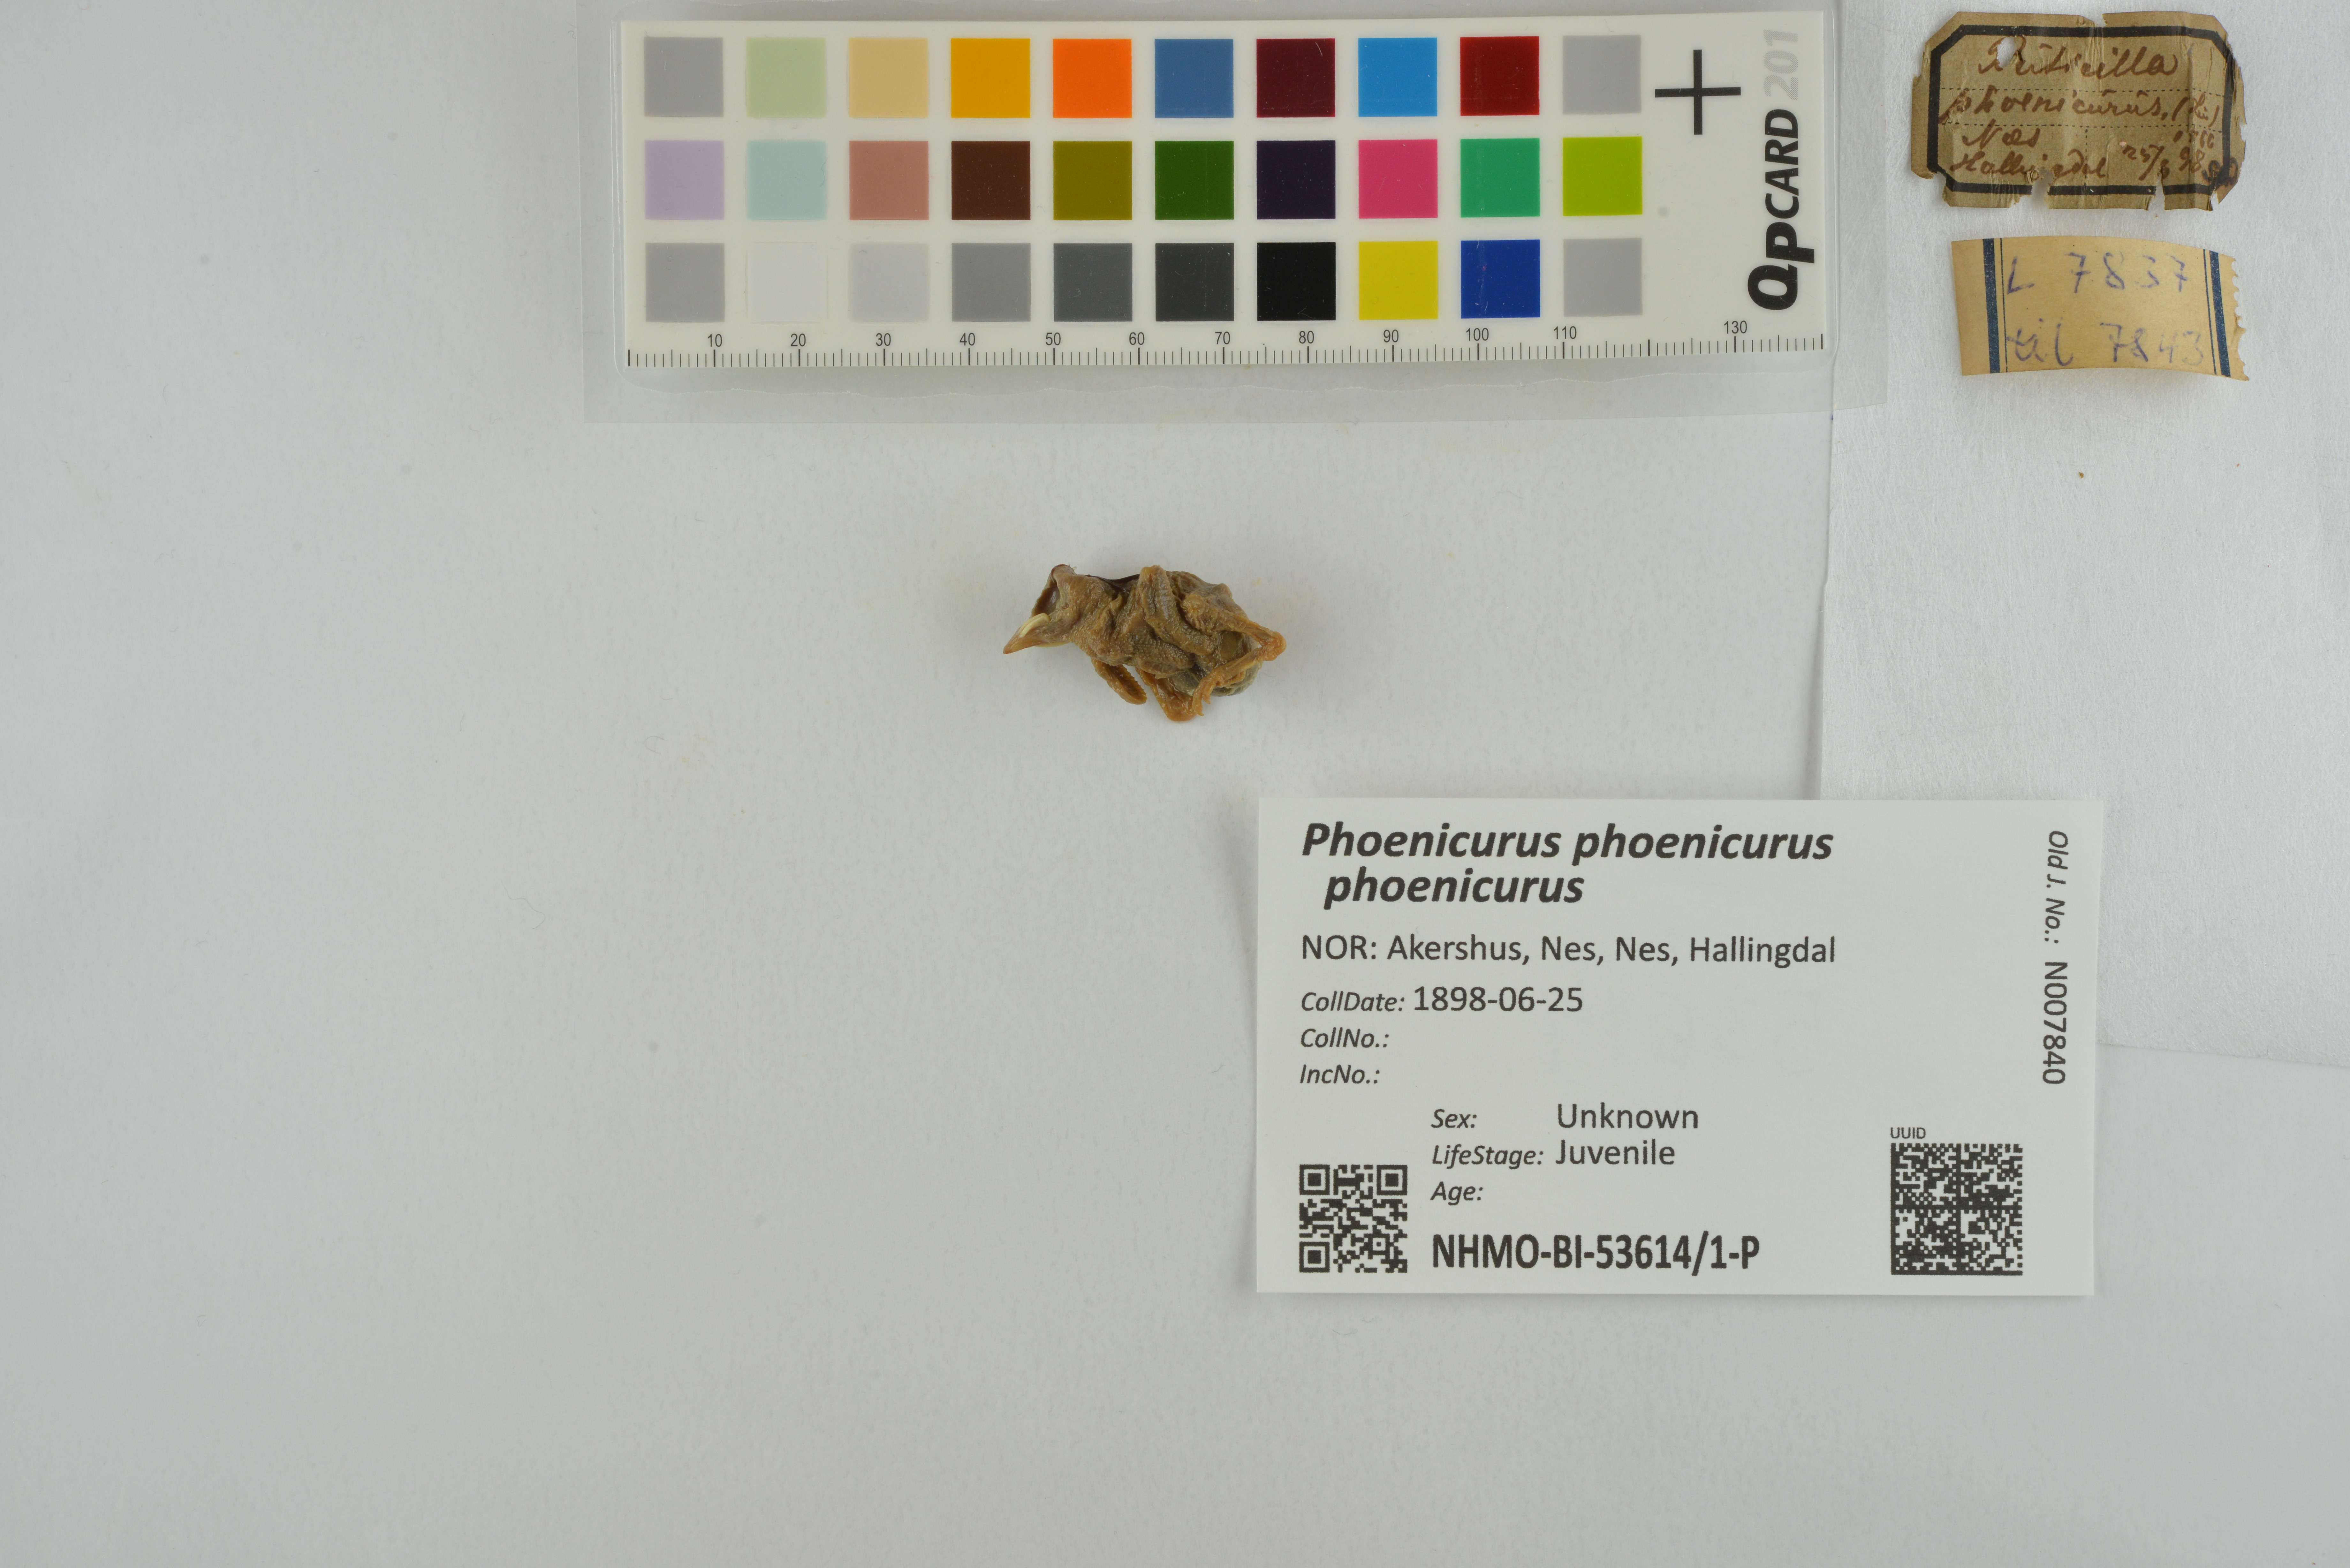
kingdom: Animalia
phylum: Chordata
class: Aves
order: Passeriformes
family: Muscicapidae
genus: Phoenicurus
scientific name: Phoenicurus phoenicurus
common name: Common redstart
